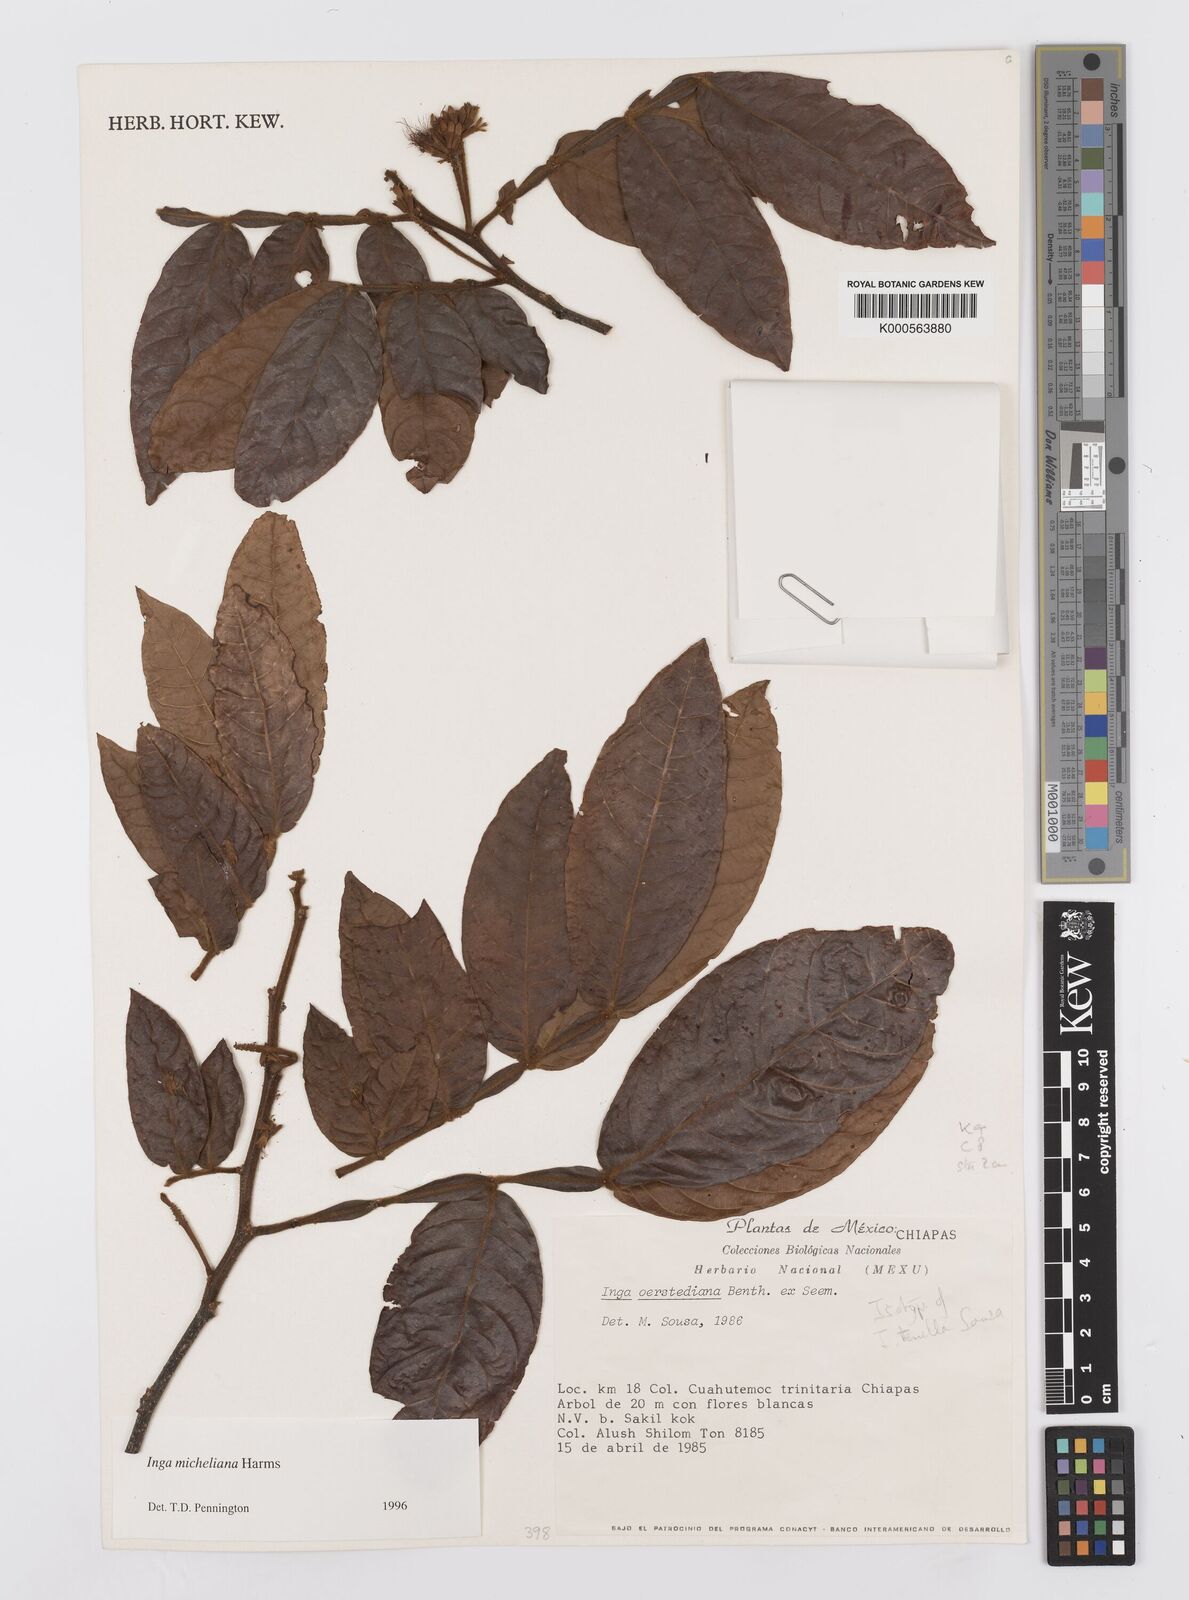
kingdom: Plantae
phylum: Tracheophyta
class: Magnoliopsida
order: Fabales
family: Fabaceae
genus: Inga
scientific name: Inga flexuosa
